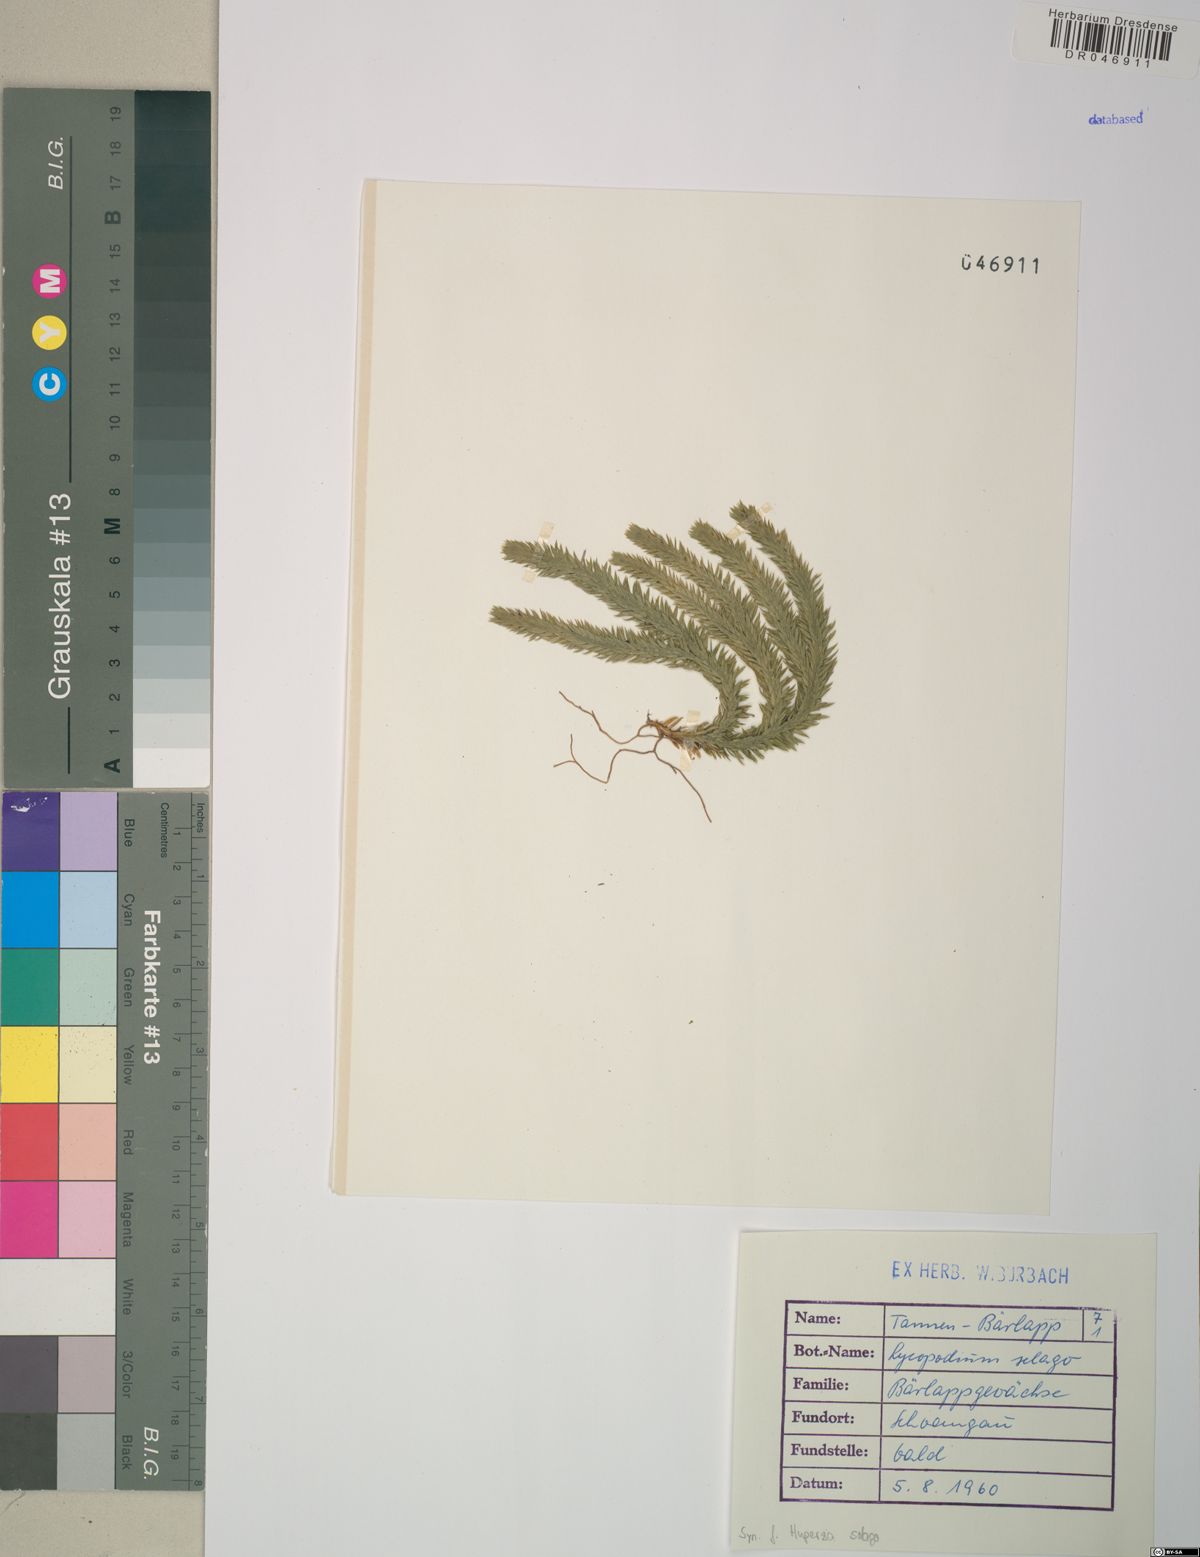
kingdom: Plantae
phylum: Tracheophyta
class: Lycopodiopsida
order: Lycopodiales
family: Lycopodiaceae
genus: Huperzia
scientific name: Huperzia selago
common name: Northern firmoss
